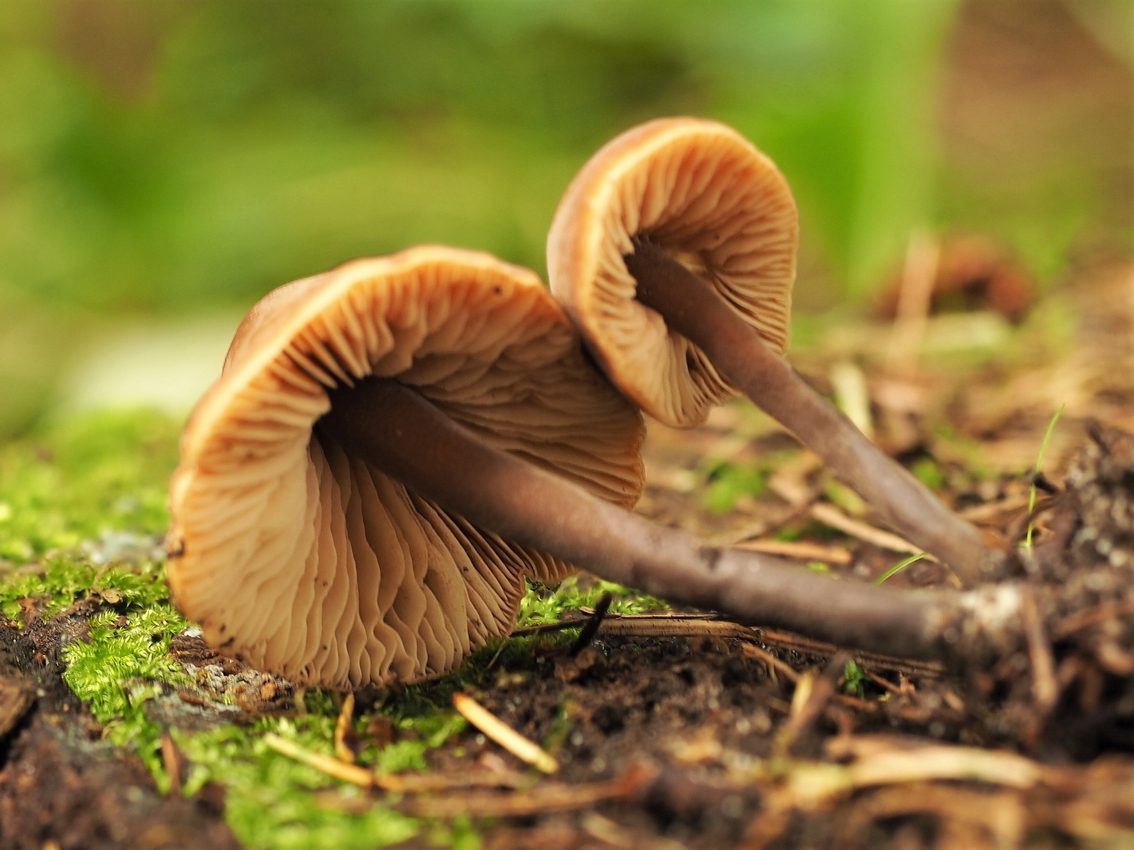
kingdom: Fungi
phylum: Basidiomycota
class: Agaricomycetes
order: Agaricales
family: Macrocystidiaceae
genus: Macrocystidia
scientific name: Macrocystidia cucumis
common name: agurkehat
